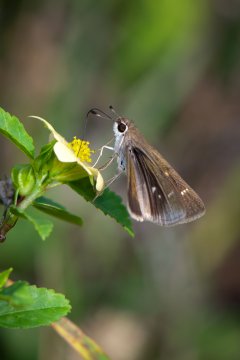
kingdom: Animalia
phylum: Arthropoda
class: Insecta
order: Lepidoptera
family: Hesperiidae
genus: Lerodea
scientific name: Lerodea eufala
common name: Eufala Skipper
